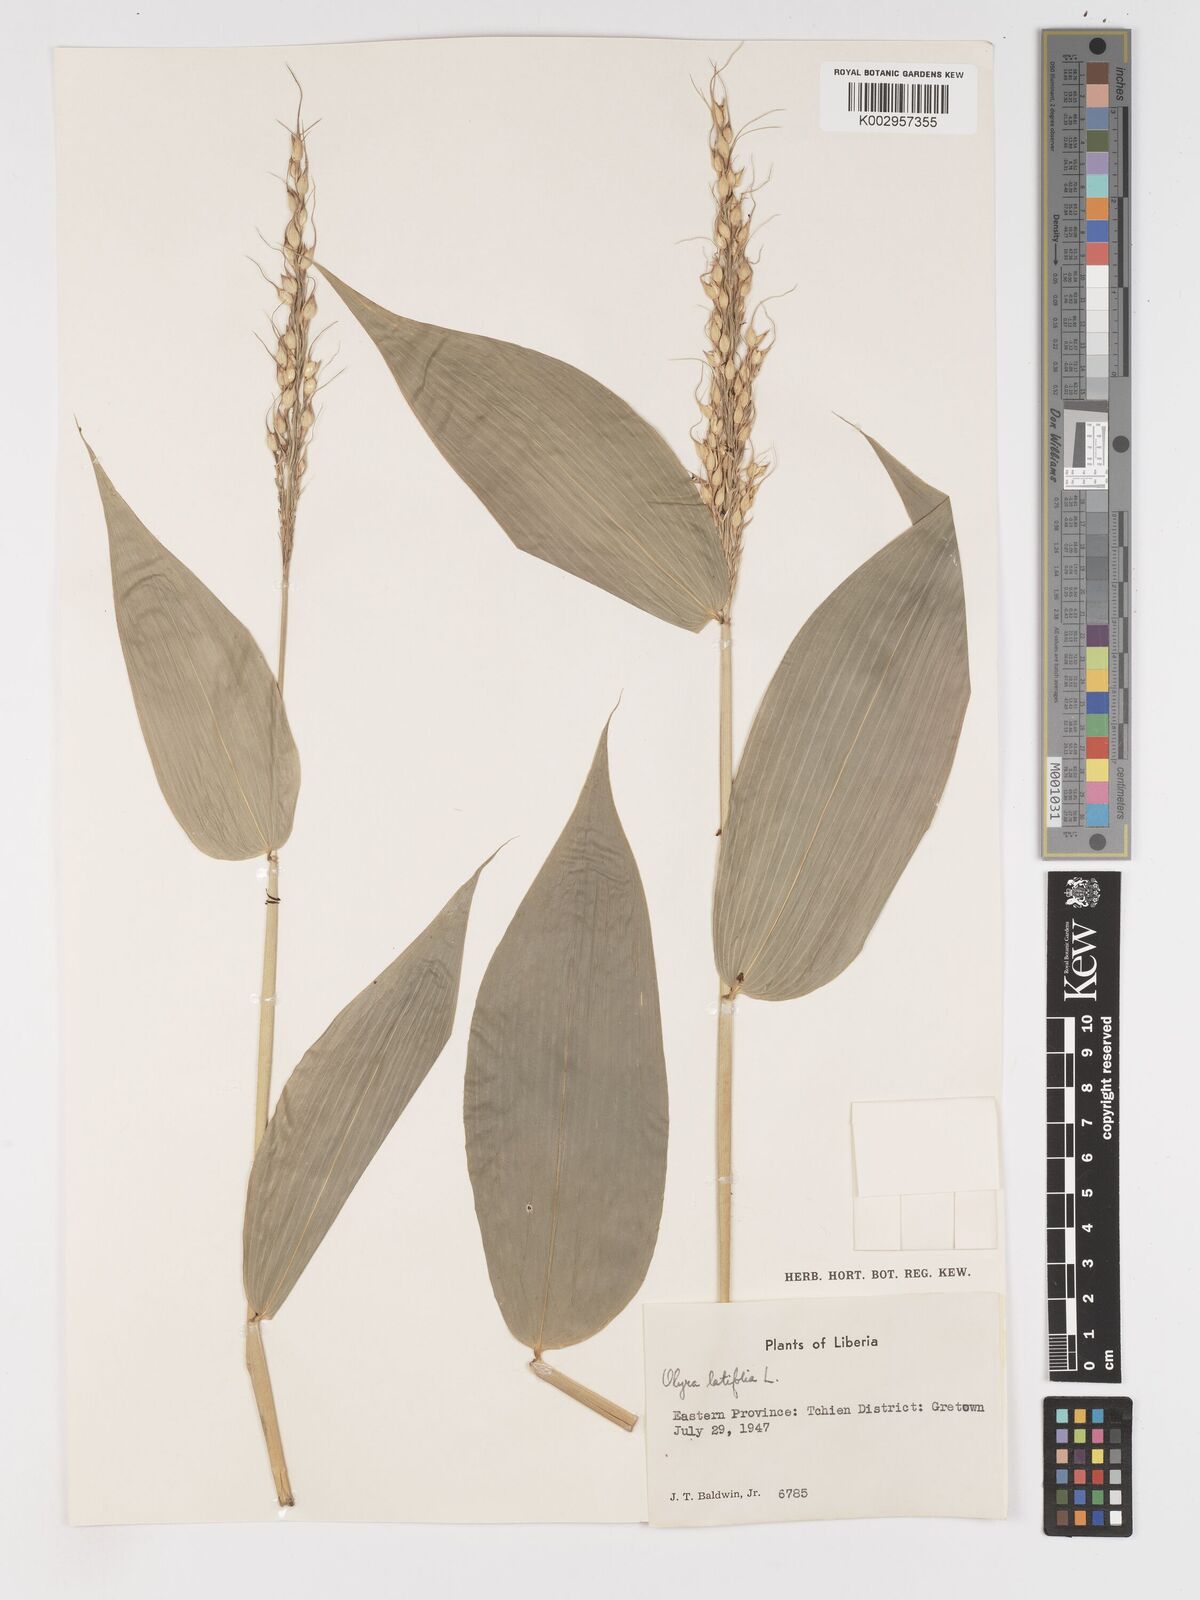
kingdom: Plantae
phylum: Tracheophyta
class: Liliopsida
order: Poales
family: Poaceae
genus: Olyra
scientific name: Olyra latifolia
